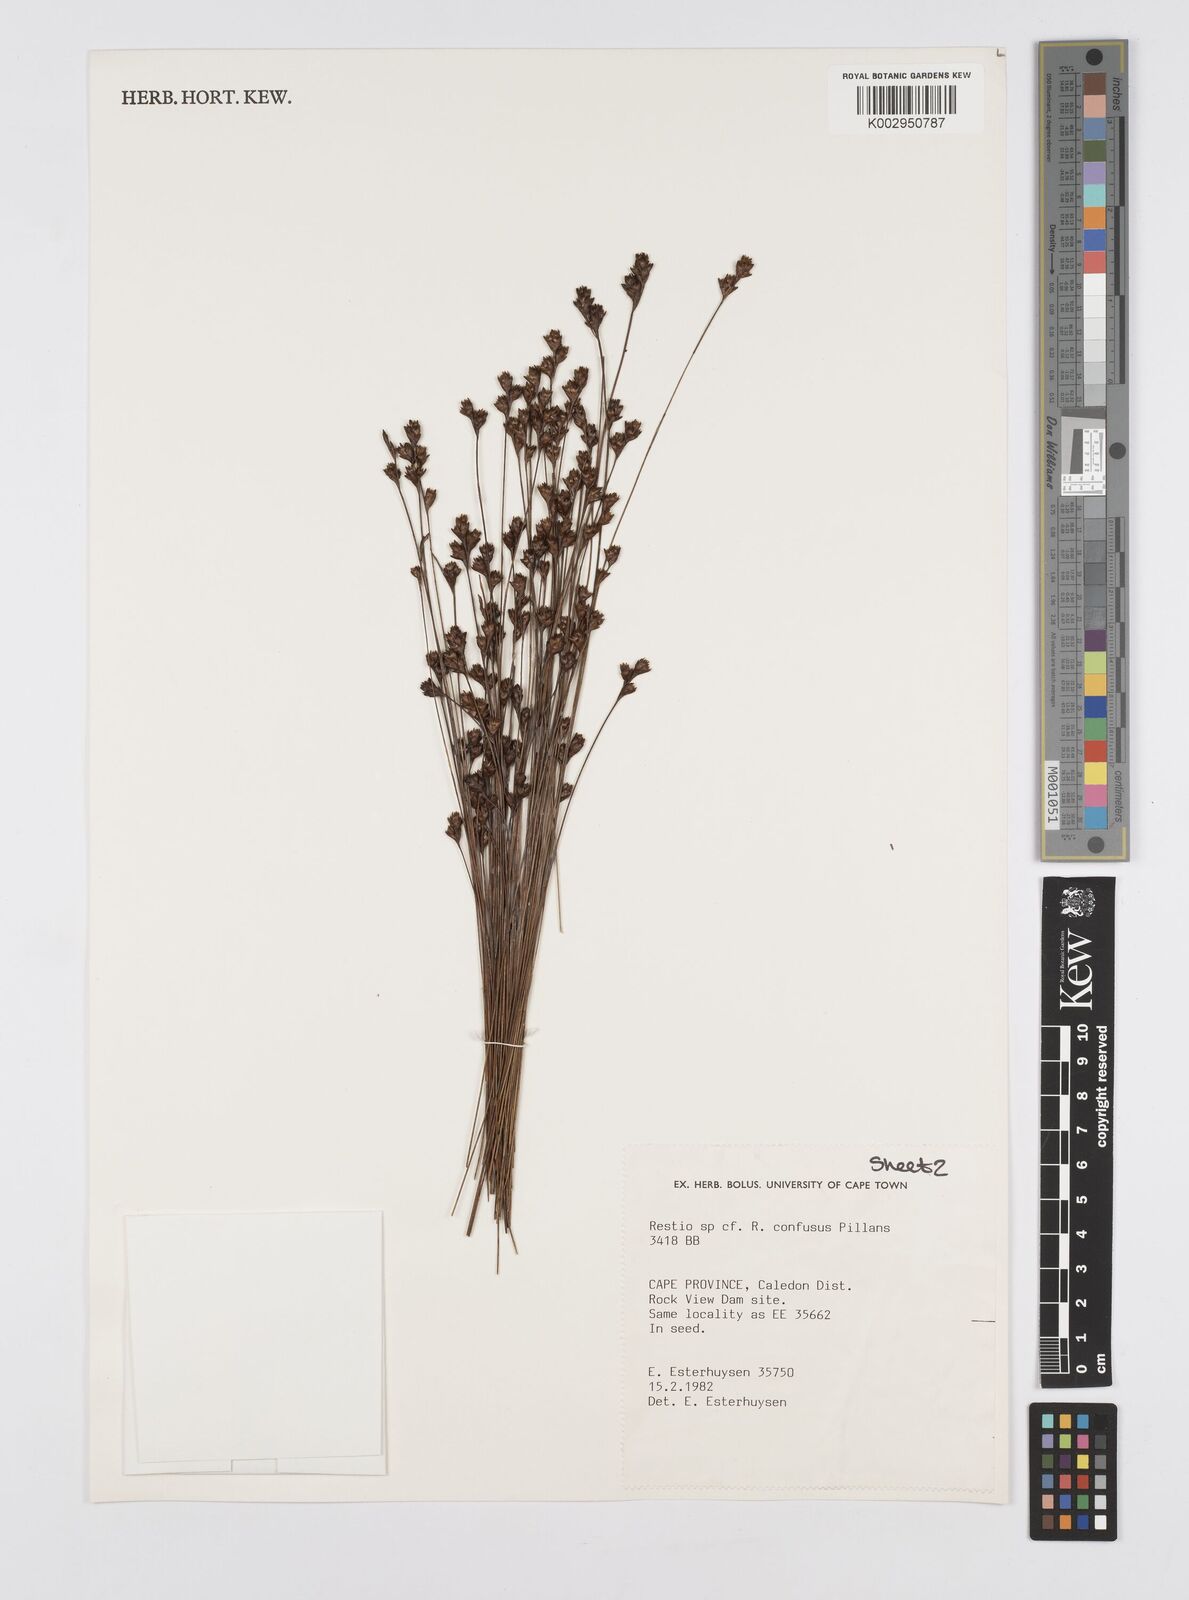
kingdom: Plantae
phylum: Tracheophyta
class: Liliopsida
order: Poales
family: Restionaceae
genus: Restio
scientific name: Restio confusus
